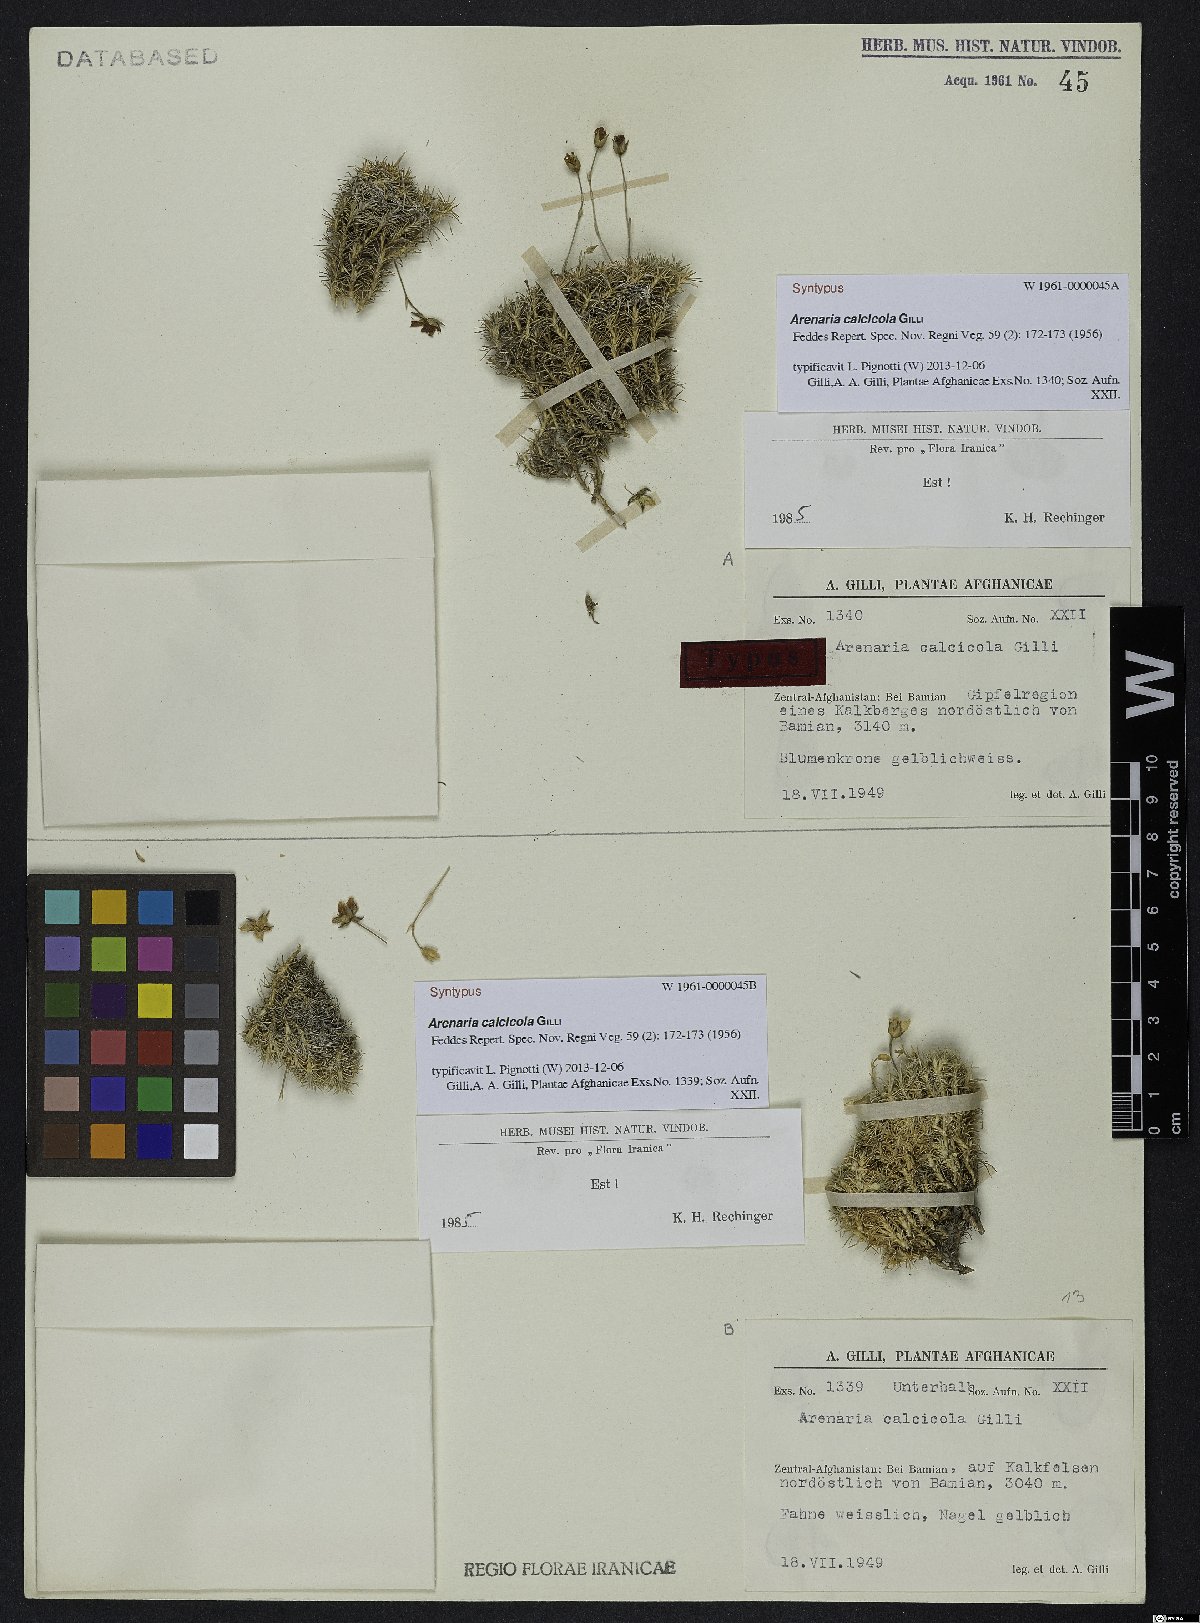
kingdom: Plantae
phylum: Tracheophyta
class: Magnoliopsida
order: Caryophyllales
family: Caryophyllaceae
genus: Arenaria
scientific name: Arenaria calcicola
